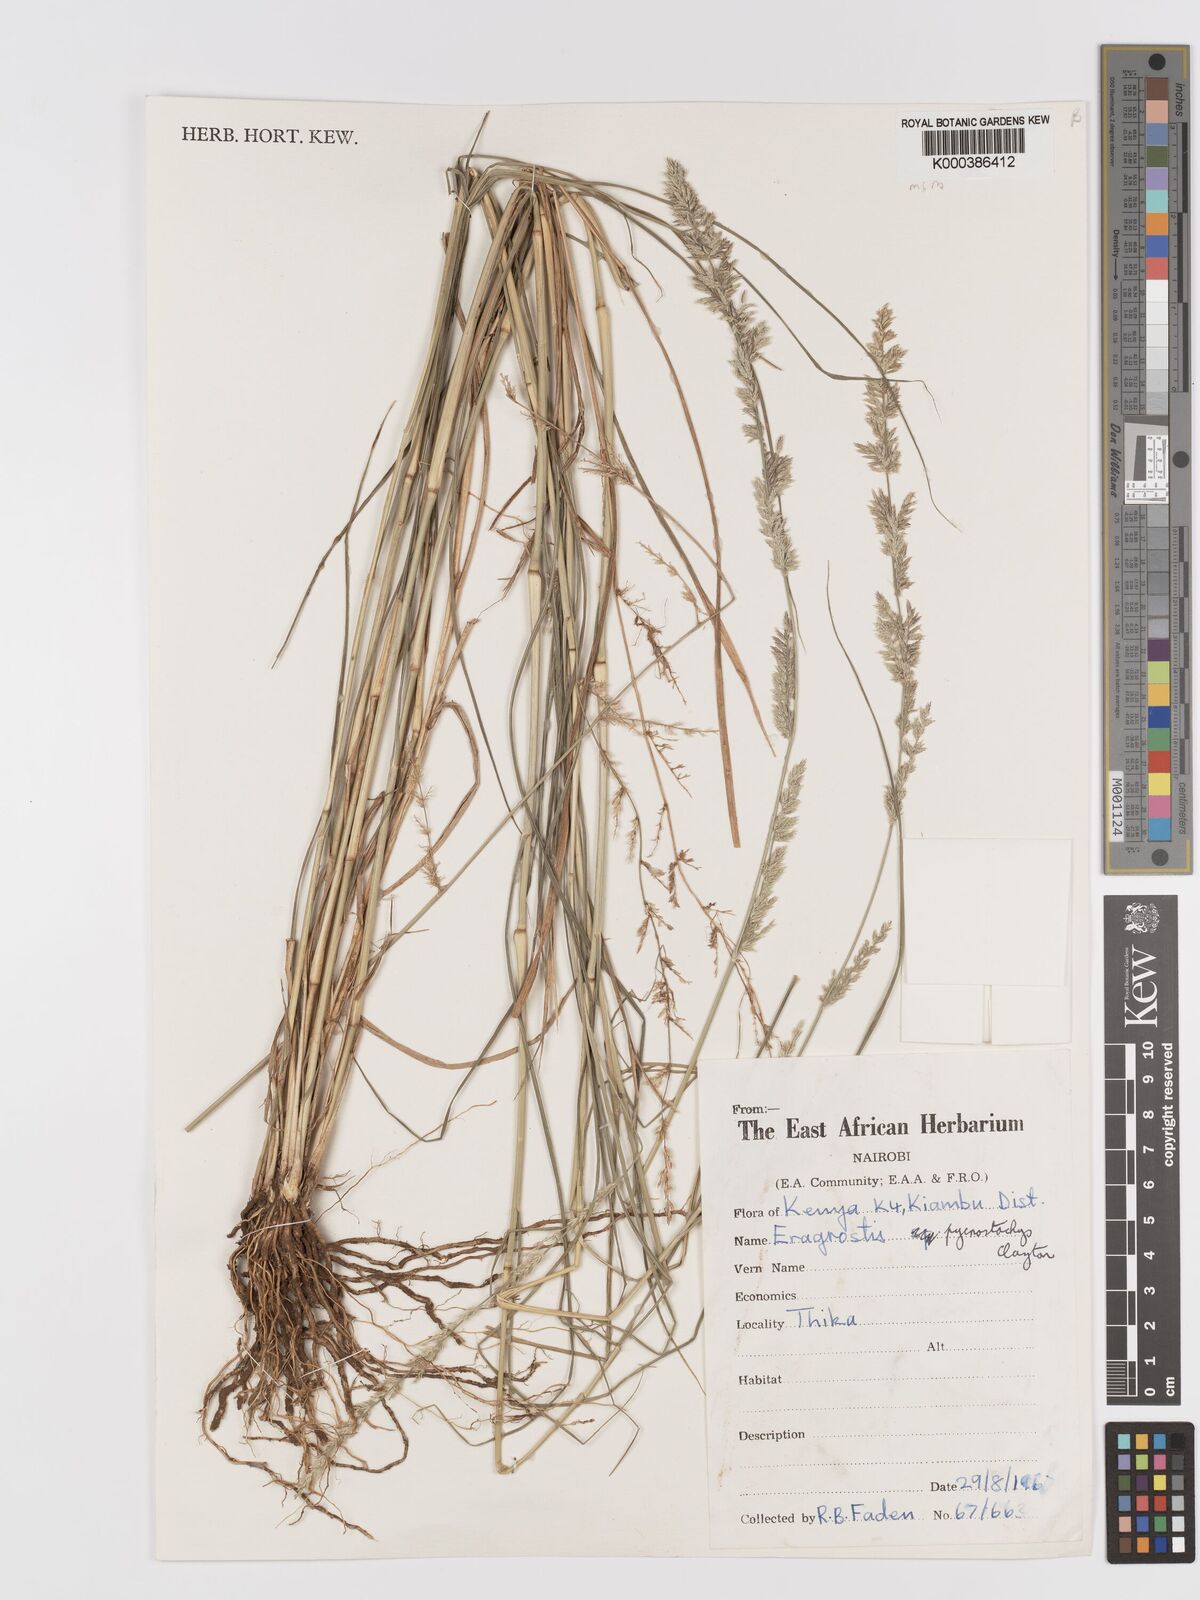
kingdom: Plantae
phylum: Tracheophyta
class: Liliopsida
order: Poales
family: Poaceae
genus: Eragrostis
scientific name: Eragrostis pycnostachys
